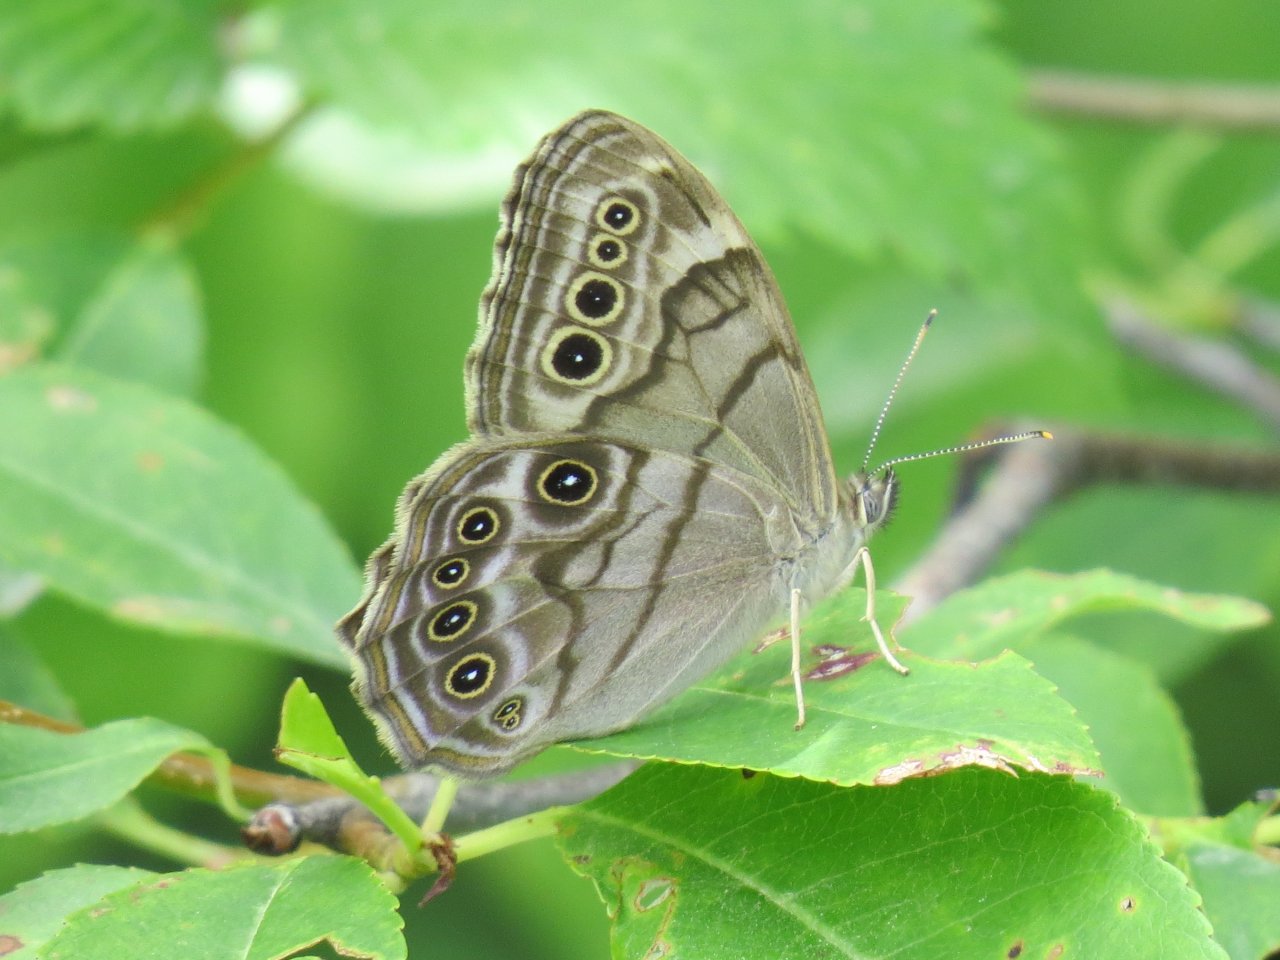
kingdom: Animalia
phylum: Arthropoda
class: Insecta
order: Lepidoptera
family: Nymphalidae
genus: Lethe
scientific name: Lethe anthedon
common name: Northern Pearly-Eye
